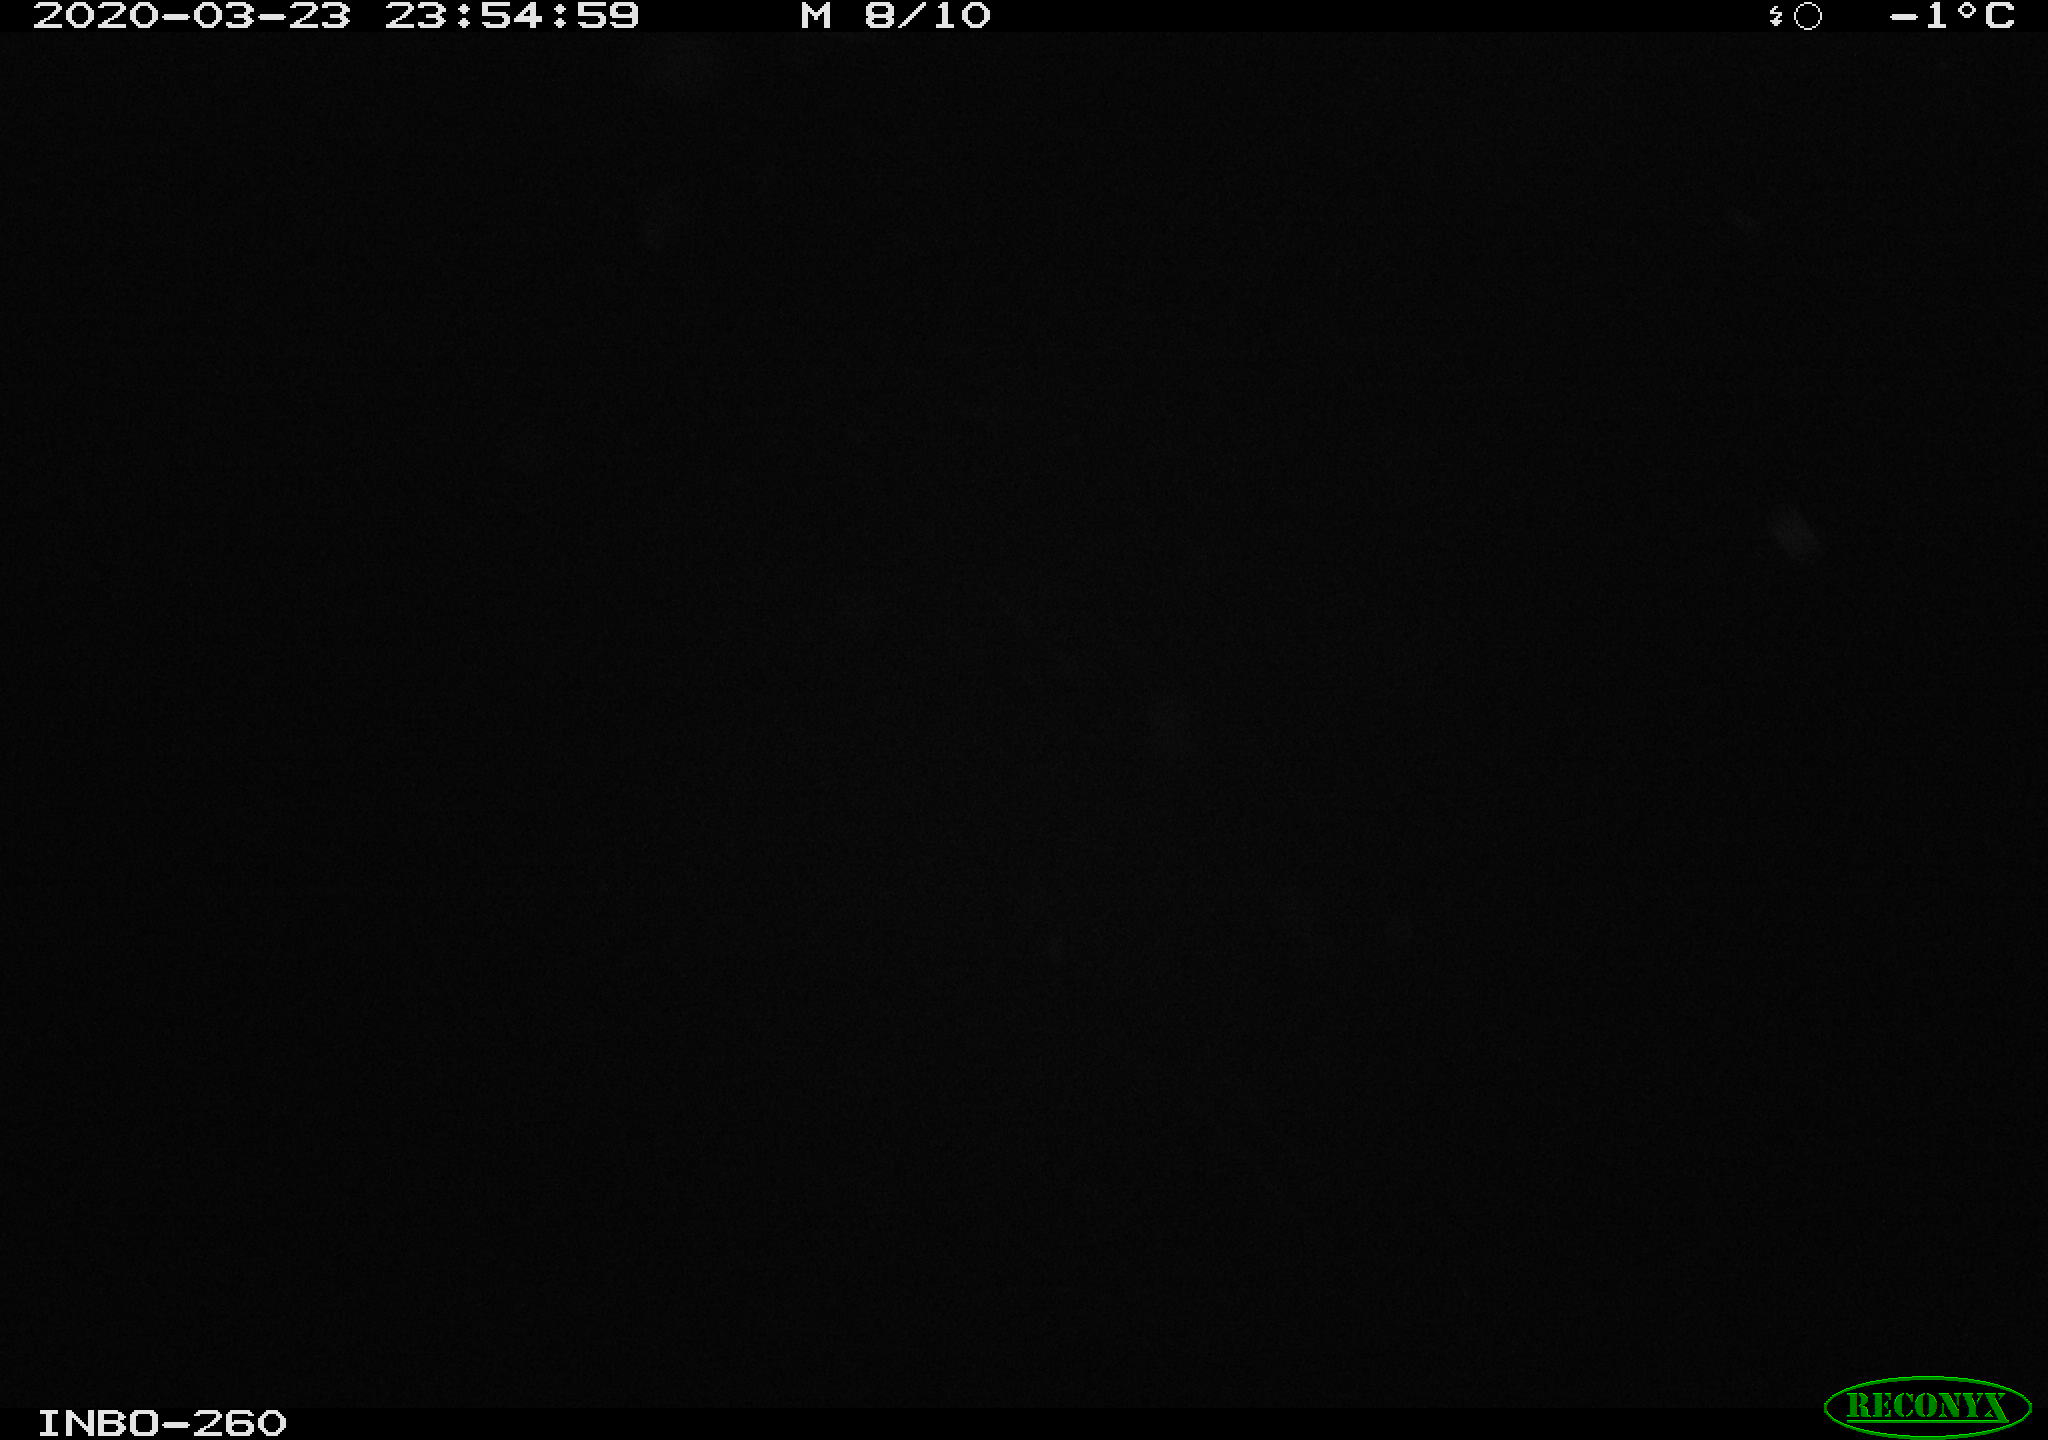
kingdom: Animalia
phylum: Chordata
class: Aves
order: Anseriformes
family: Anatidae
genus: Anas
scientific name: Anas platyrhynchos
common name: Mallard
